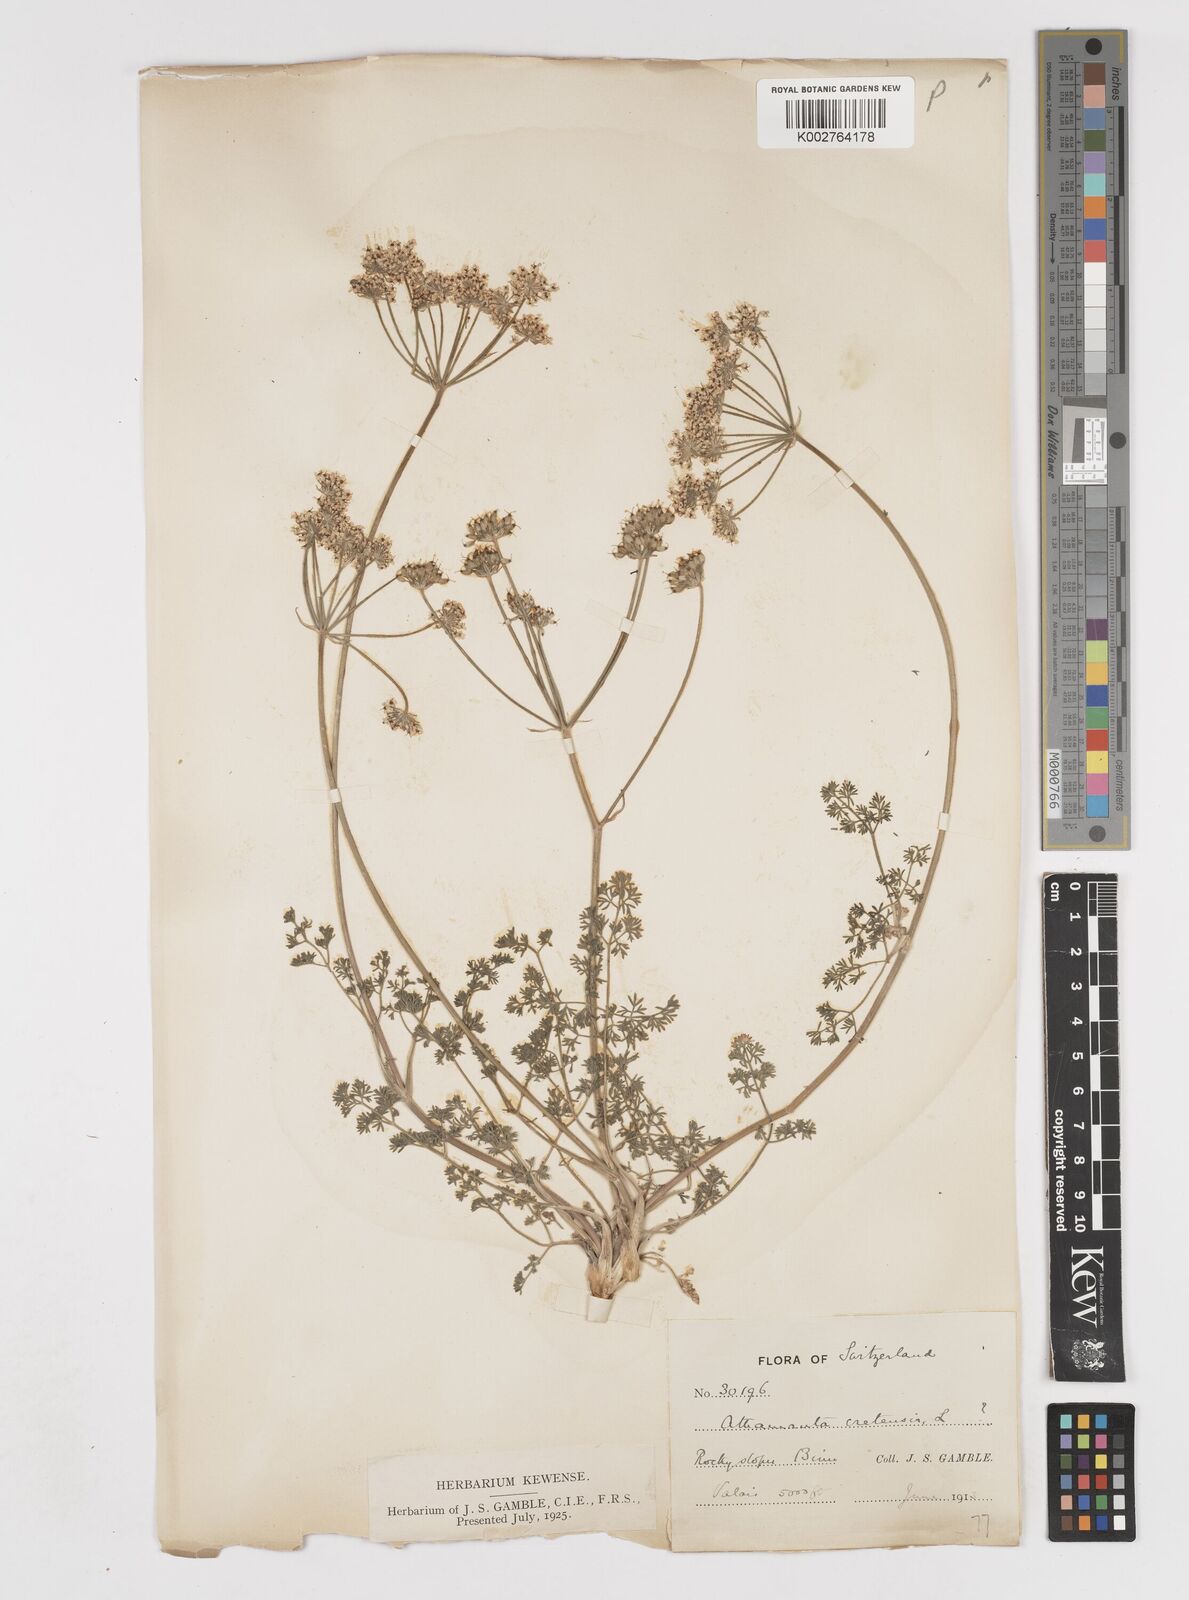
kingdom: Plantae
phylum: Tracheophyta
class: Magnoliopsida
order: Apiales
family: Apiaceae
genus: Athamanta
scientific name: Athamanta cretensis
